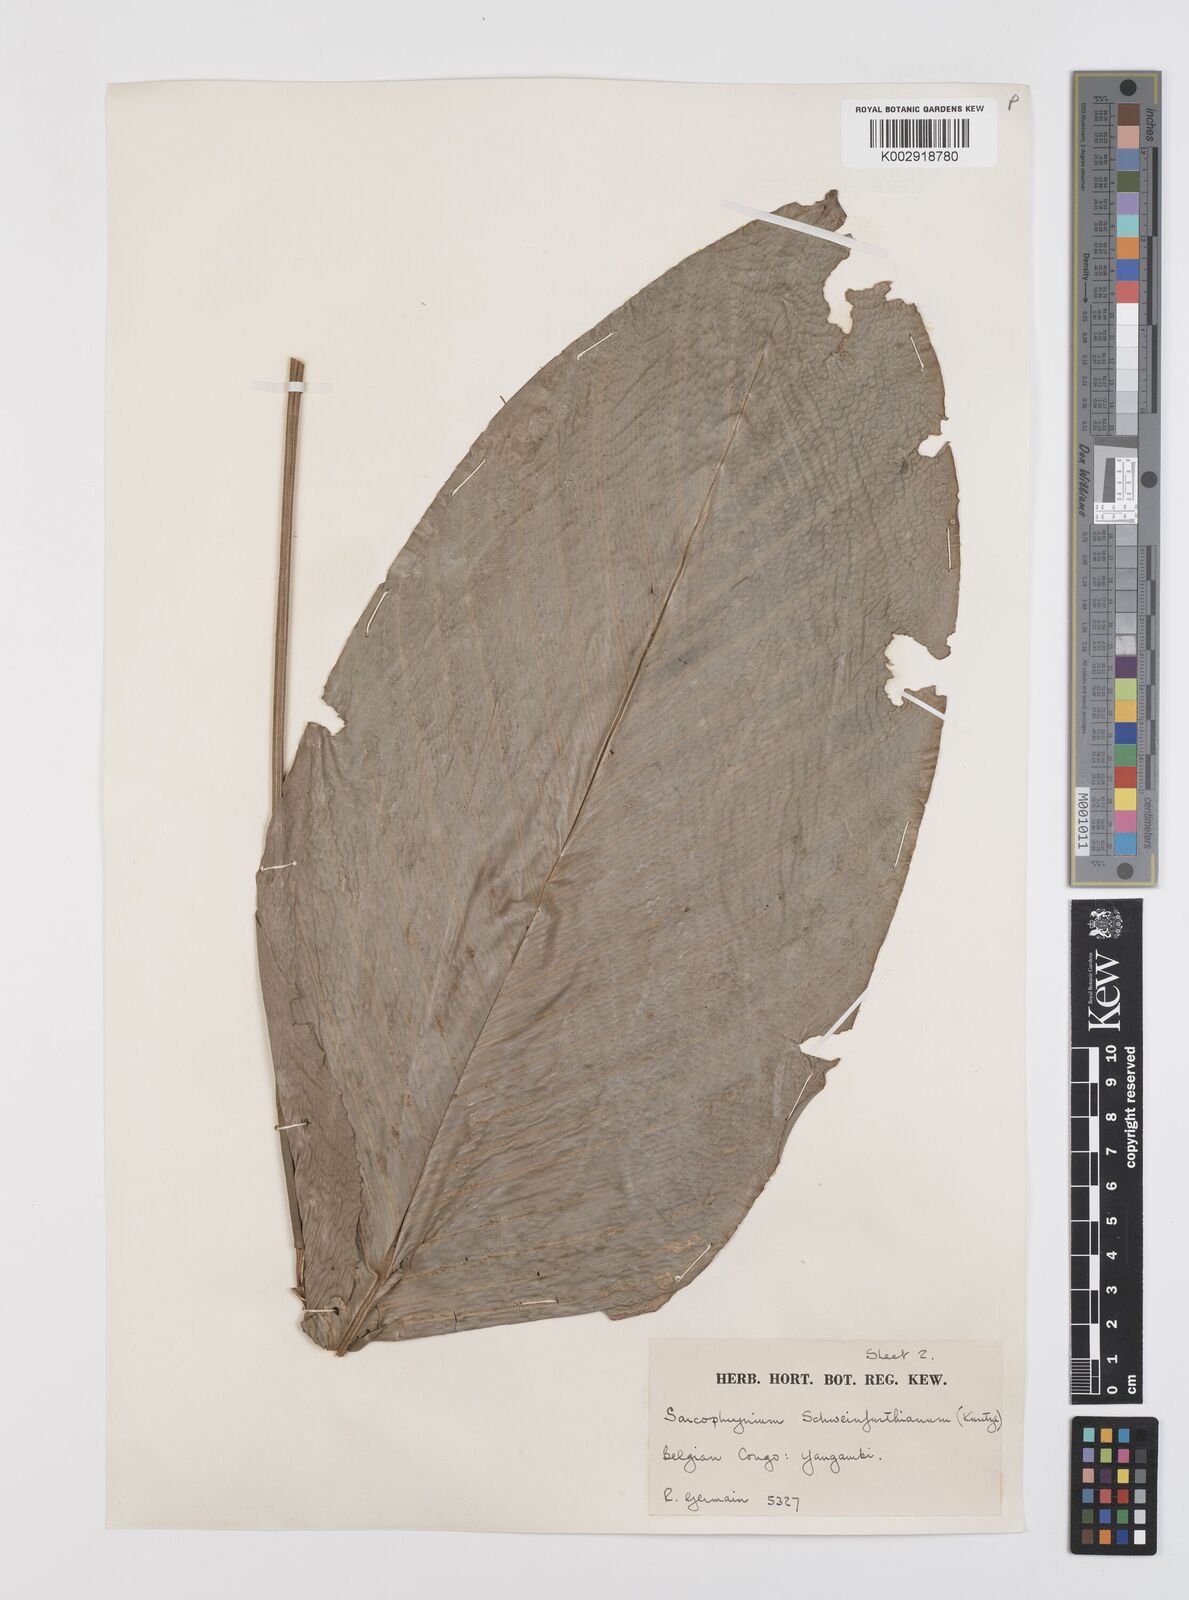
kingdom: Plantae
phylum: Tracheophyta
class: Liliopsida
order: Zingiberales
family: Marantaceae
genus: Sarcophrynium
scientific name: Sarcophrynium schweinfurthianum
